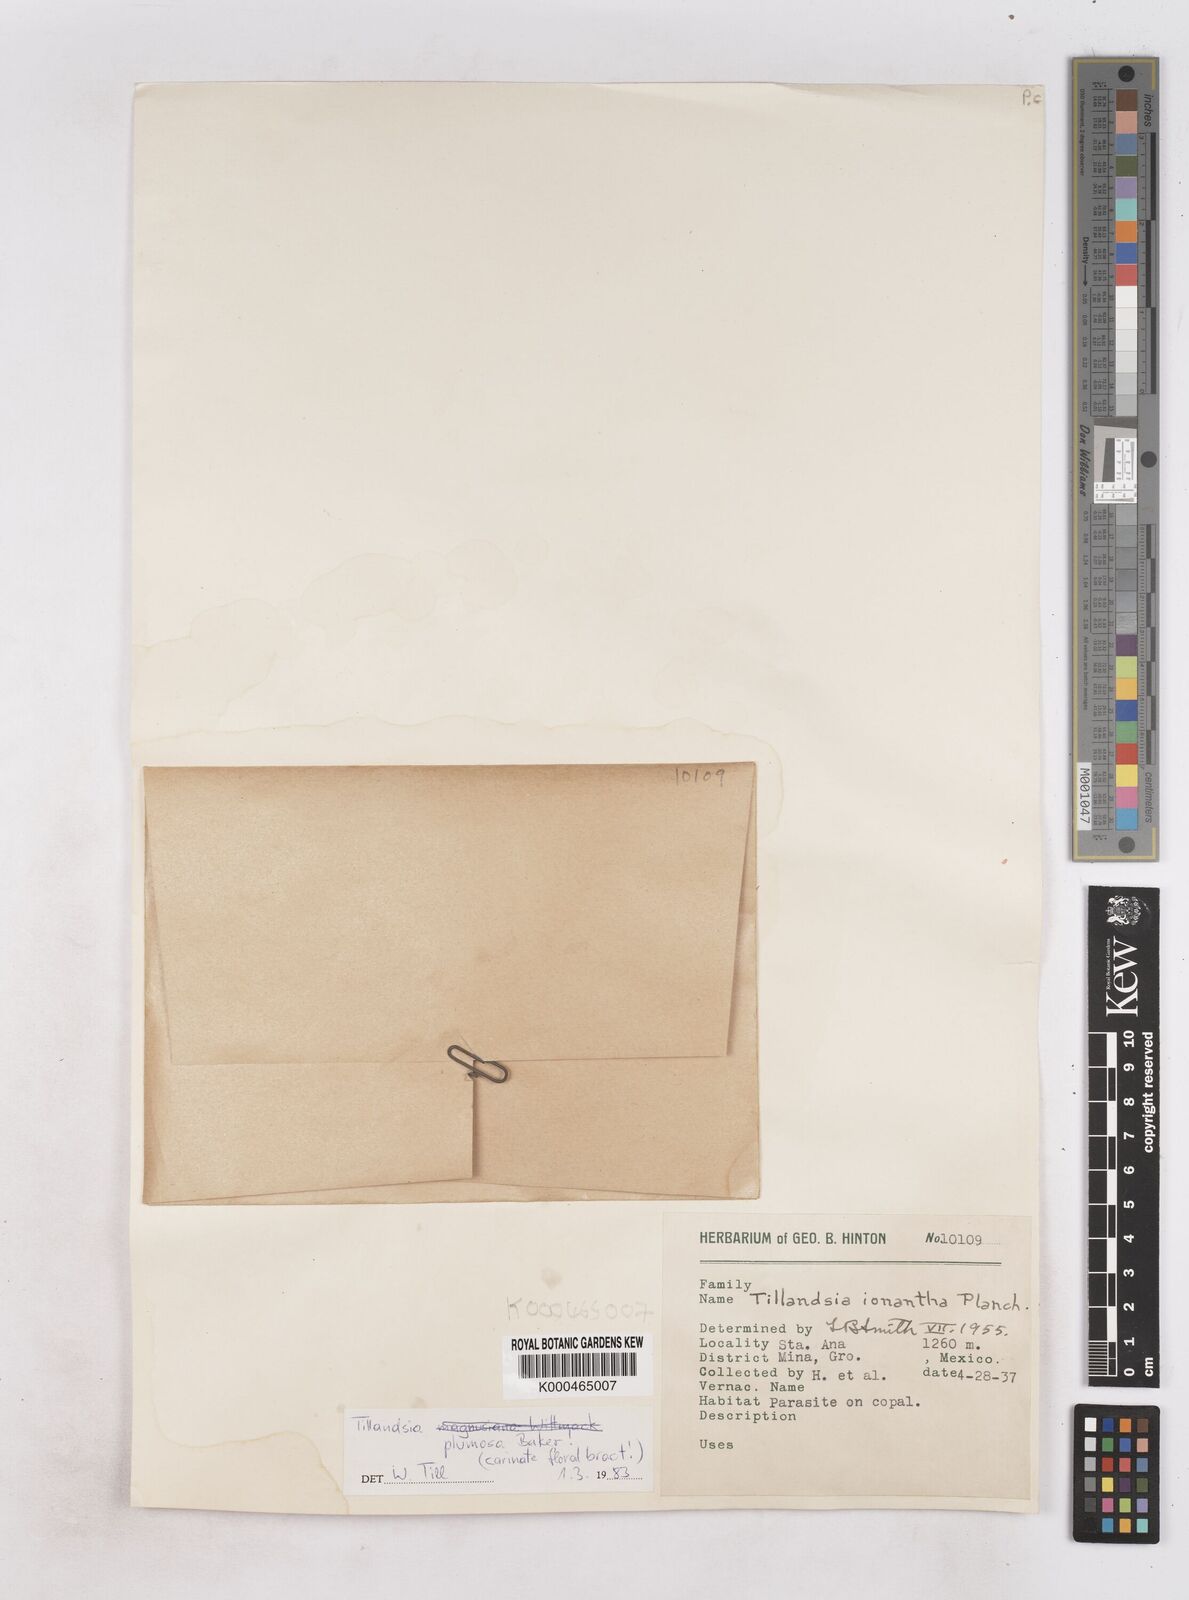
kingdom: Plantae
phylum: Tracheophyta
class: Liliopsida
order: Poales
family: Bromeliaceae
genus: Tillandsia
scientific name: Tillandsia plumosa
